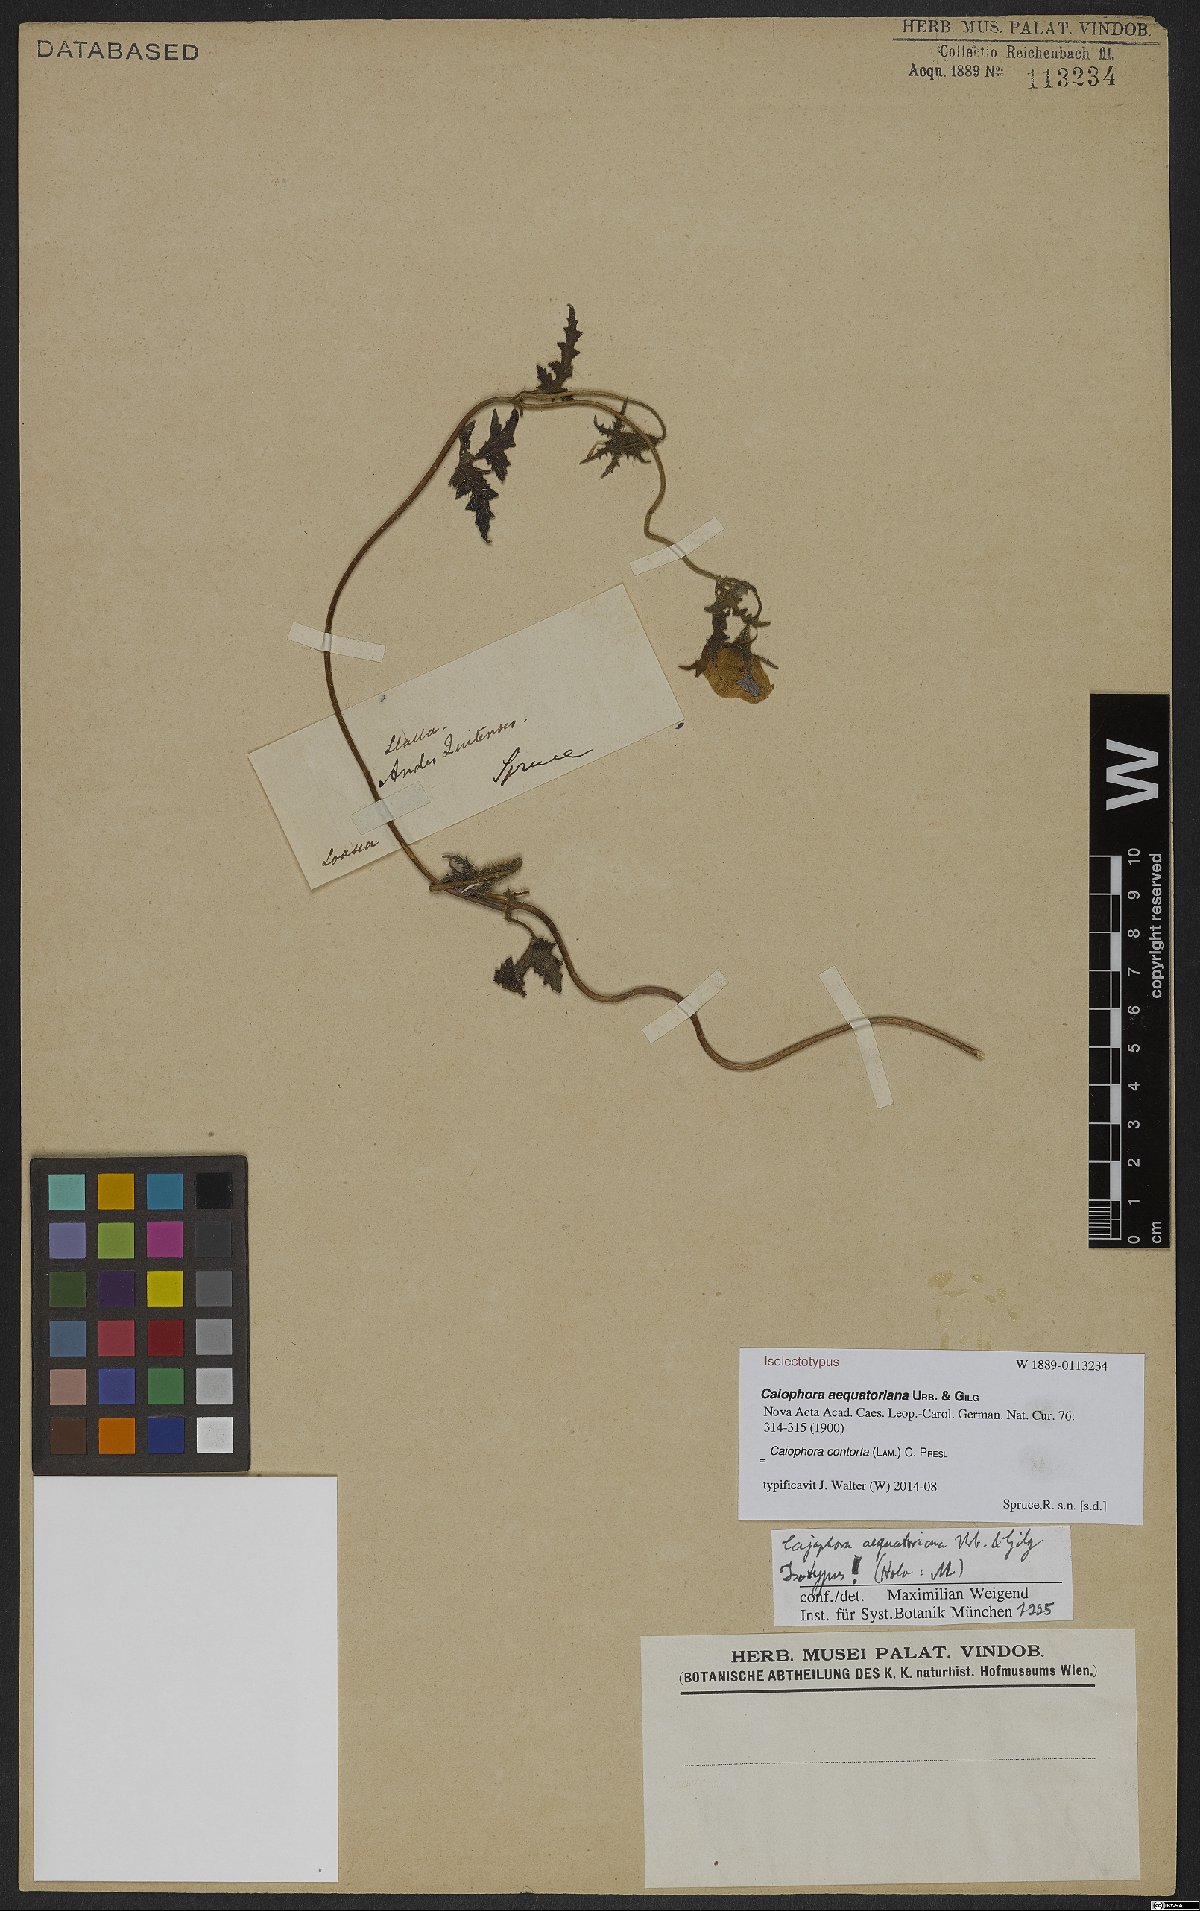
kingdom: Plantae
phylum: Tracheophyta
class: Magnoliopsida
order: Cornales
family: Loasaceae
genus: Caiophora
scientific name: Caiophora contorta
